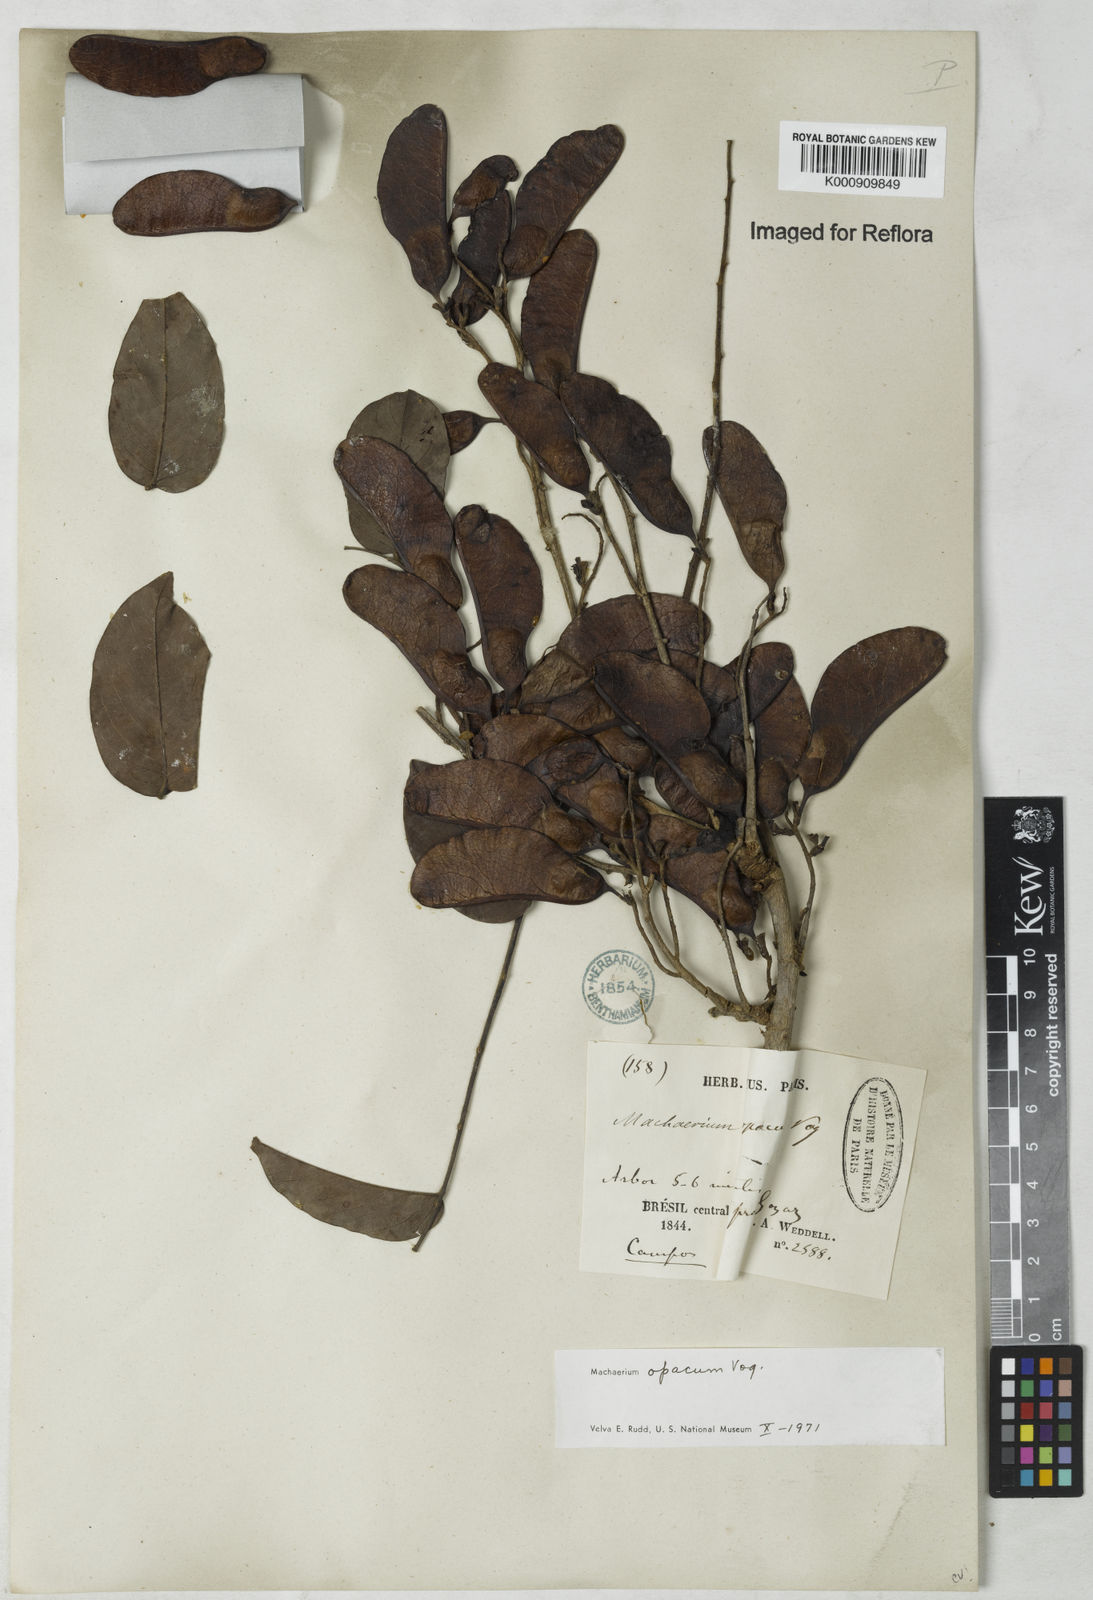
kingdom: Plantae
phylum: Tracheophyta
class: Magnoliopsida
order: Fabales
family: Fabaceae
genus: Machaerium
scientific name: Machaerium opacum
